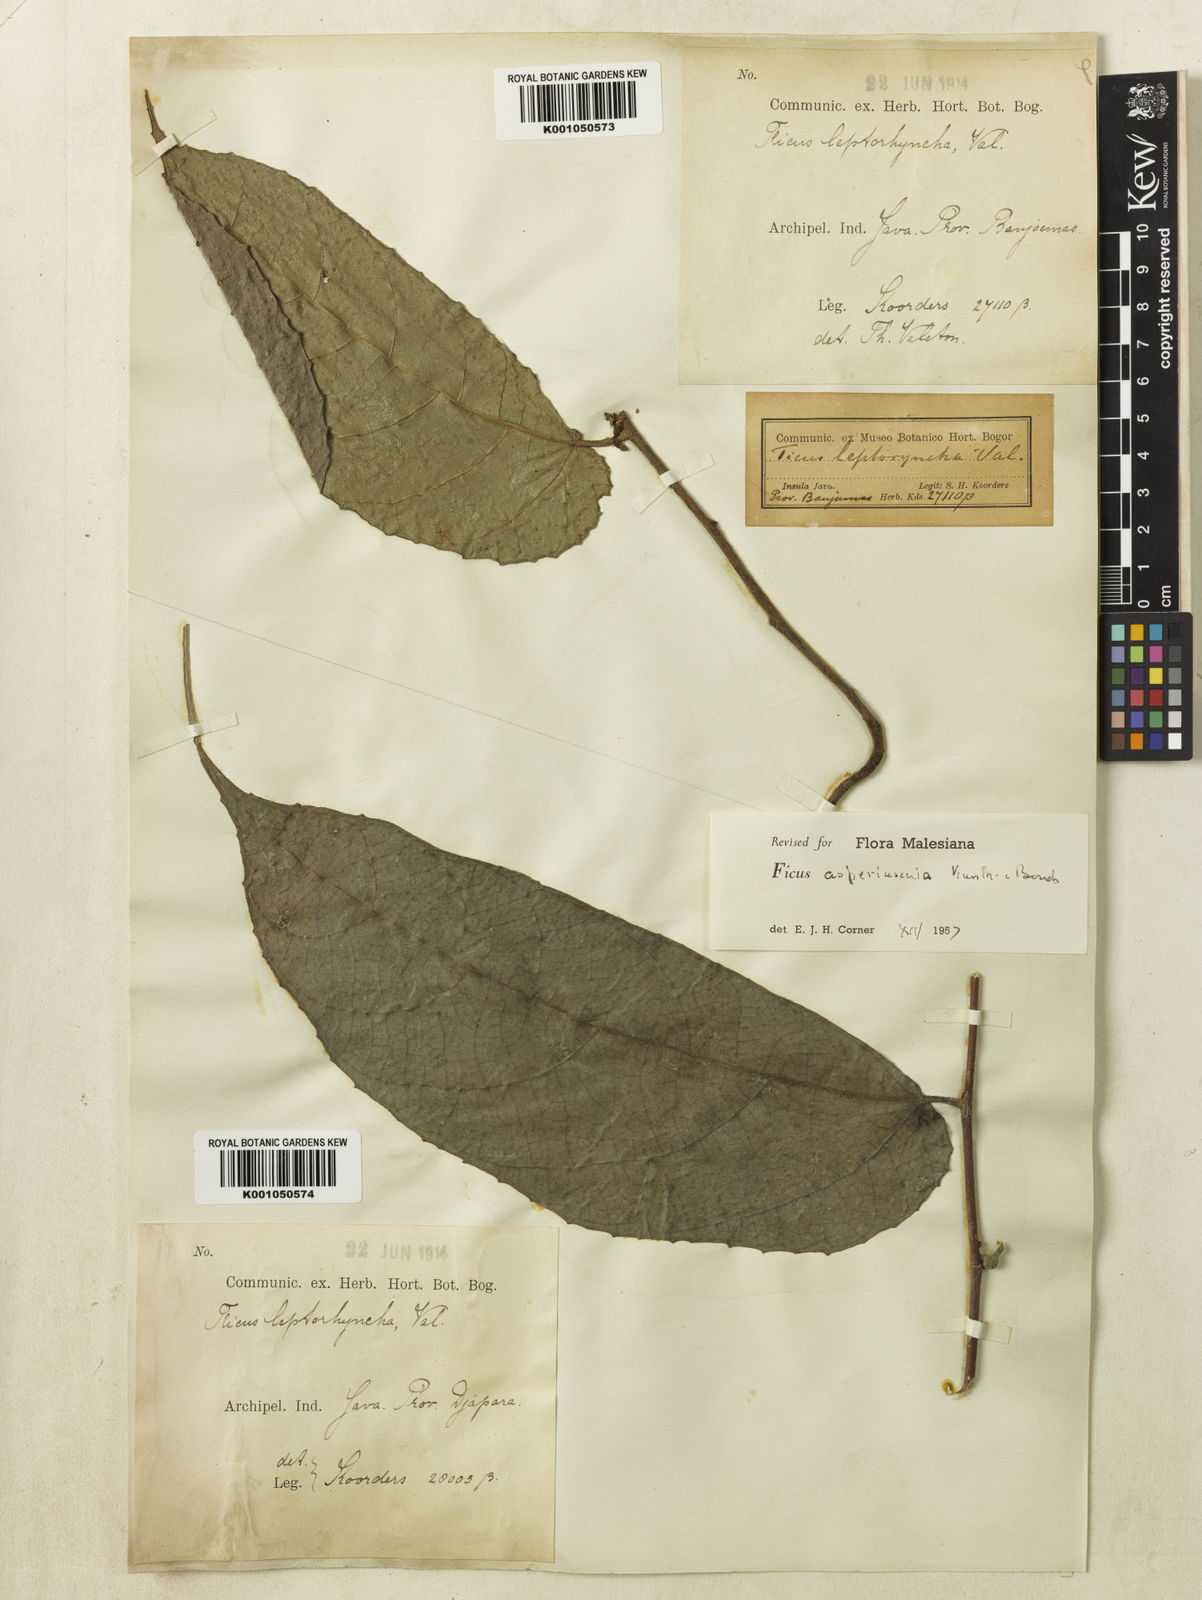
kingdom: Plantae
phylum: Tracheophyta
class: Magnoliopsida
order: Rosales
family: Moraceae
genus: Ficus
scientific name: Ficus
